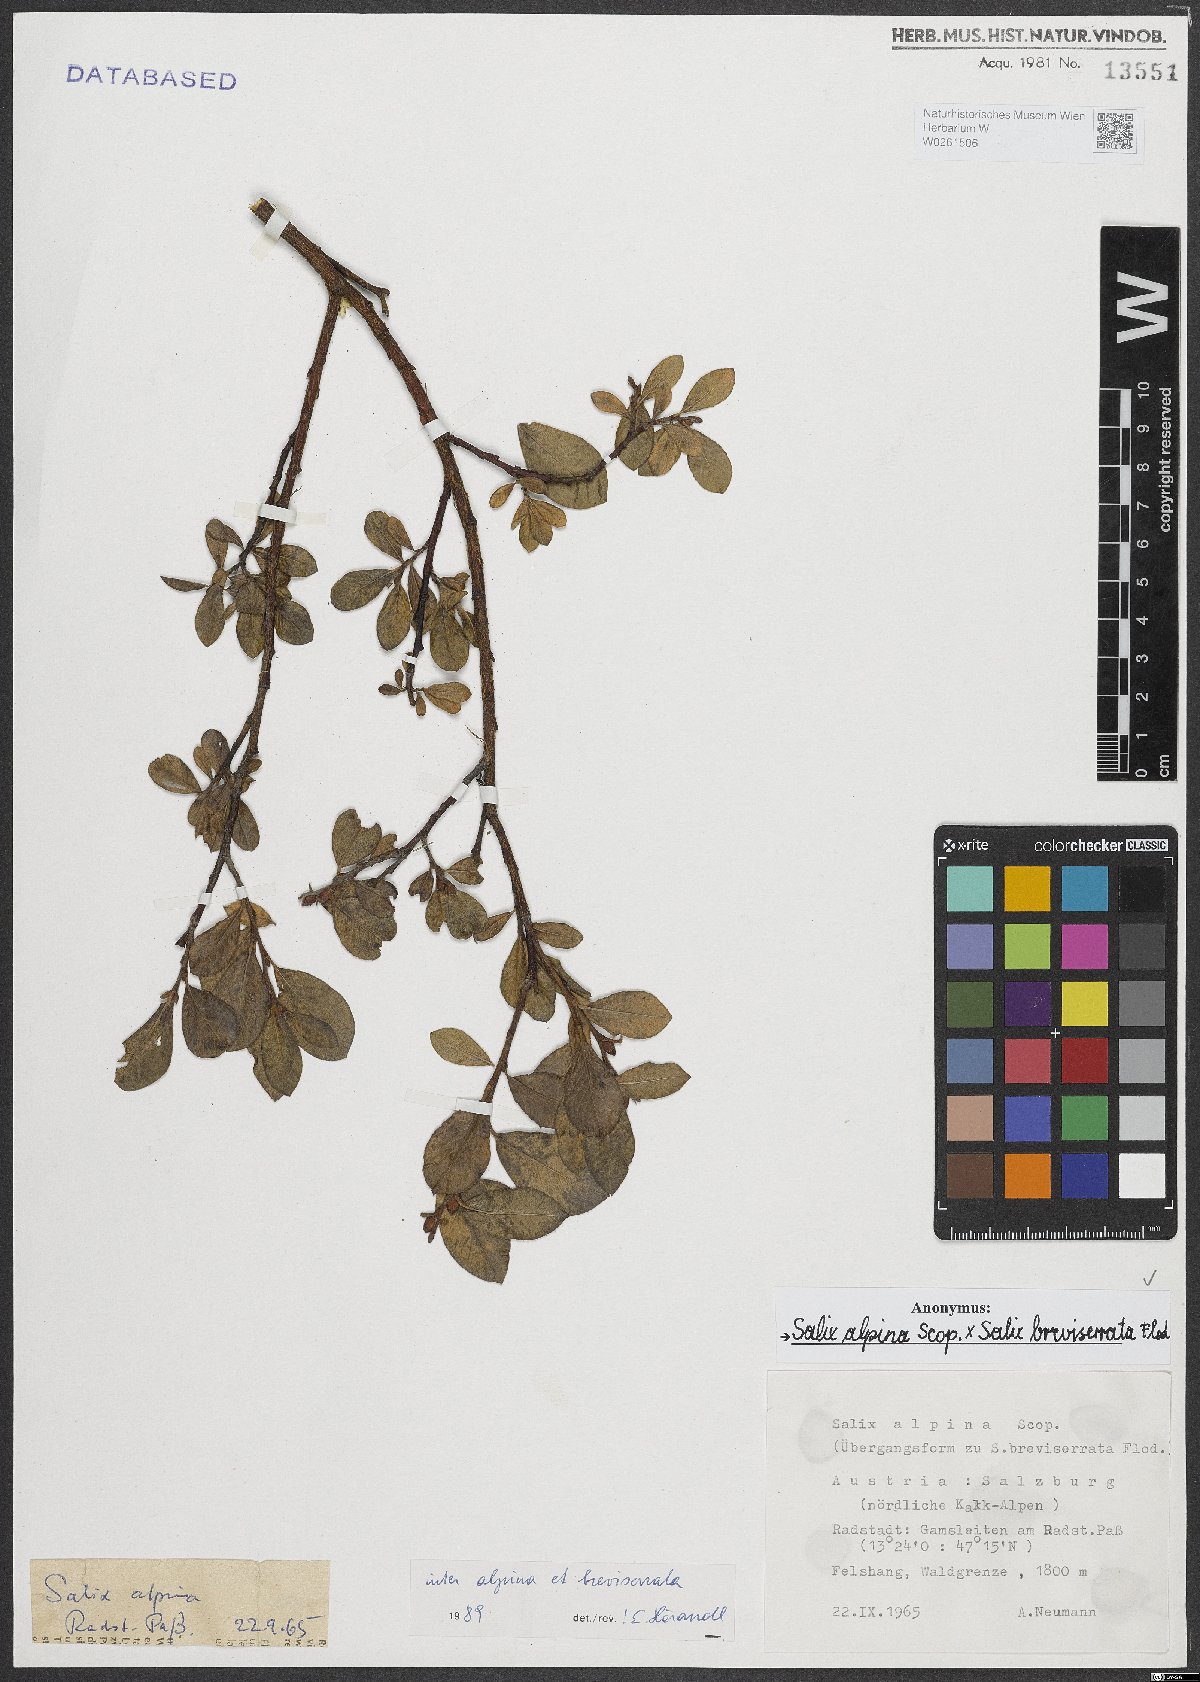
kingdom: Plantae
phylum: Tracheophyta
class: Magnoliopsida
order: Malpighiales
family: Salicaceae
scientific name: Salicaceae
